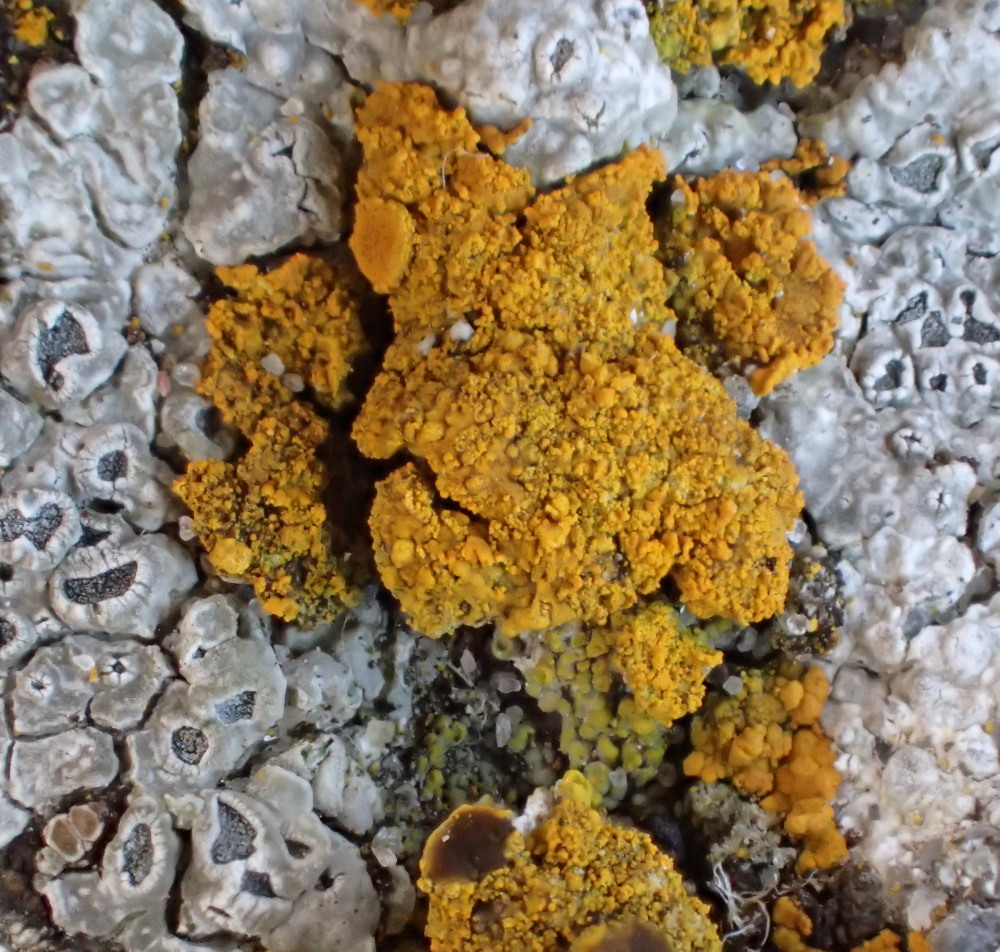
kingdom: Fungi
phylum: Ascomycota
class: Lecanoromycetes
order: Pertusariales
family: Megasporaceae
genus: Circinaria
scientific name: Circinaria contorta
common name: indviklet hulskivelav
